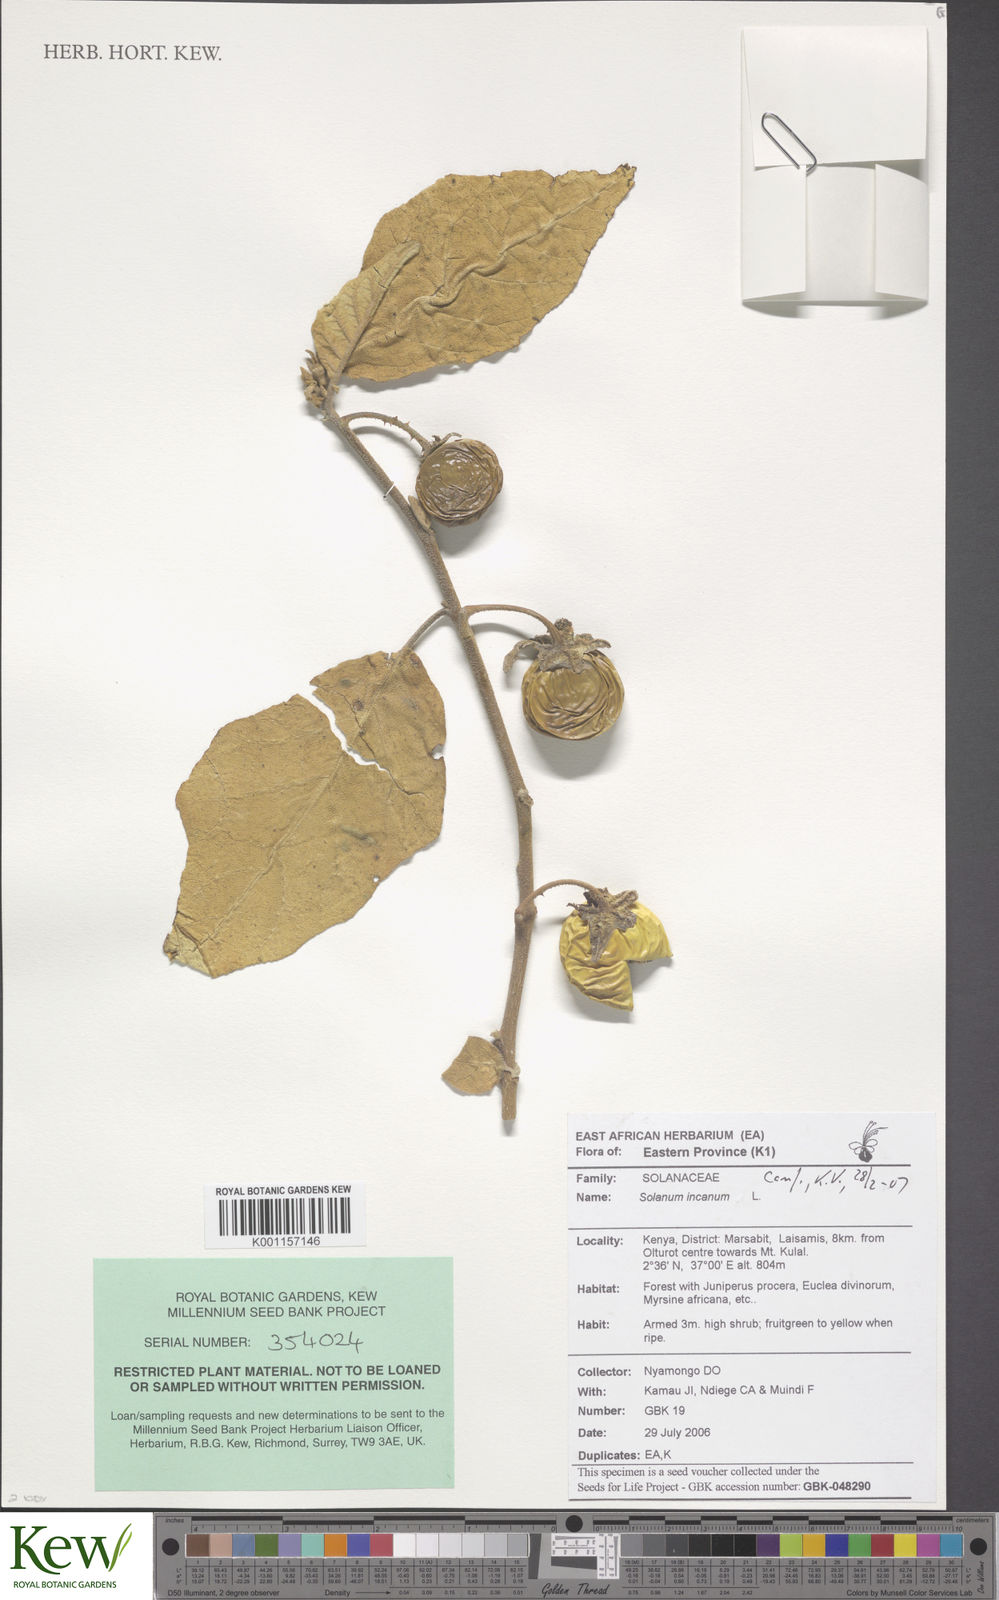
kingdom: Plantae
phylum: Tracheophyta
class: Magnoliopsida
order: Solanales
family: Solanaceae
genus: Solanum
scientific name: Solanum campylacanthum
